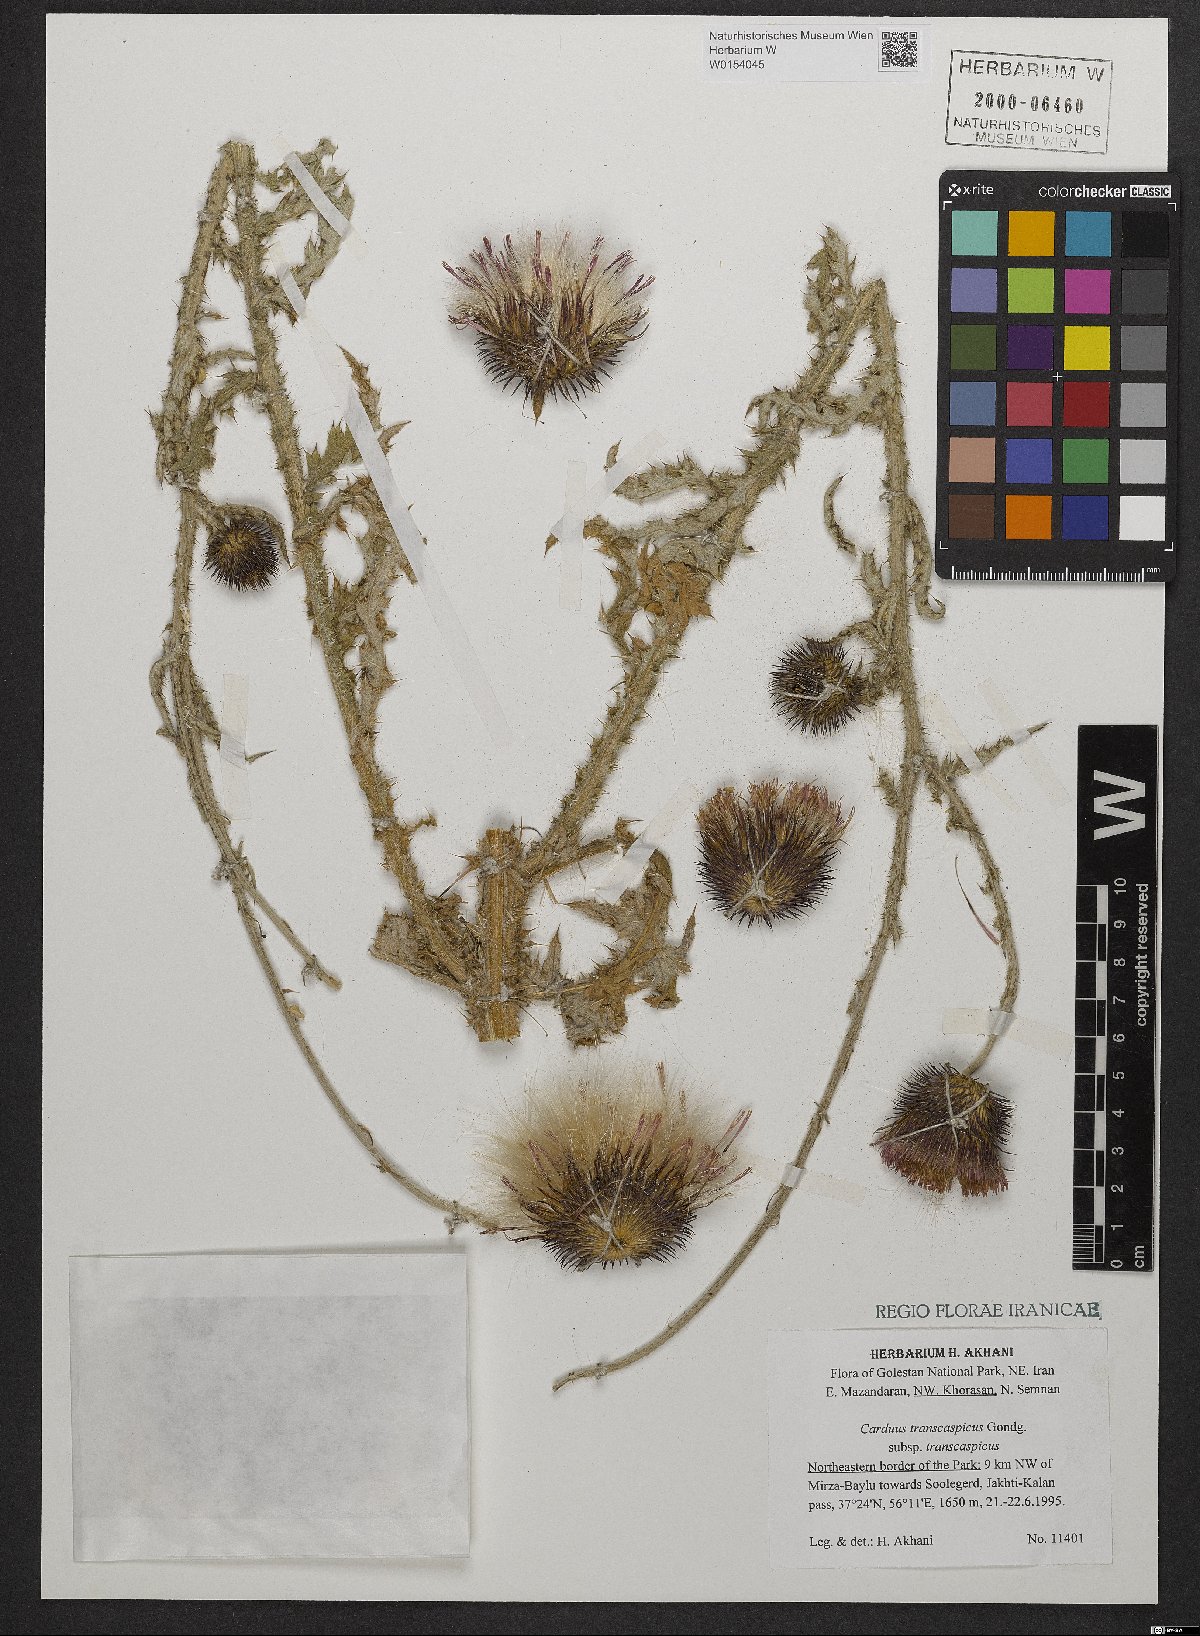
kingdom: Plantae
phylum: Tracheophyta
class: Magnoliopsida
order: Asterales
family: Asteraceae
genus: Carduus
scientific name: Carduus transcaspicus
